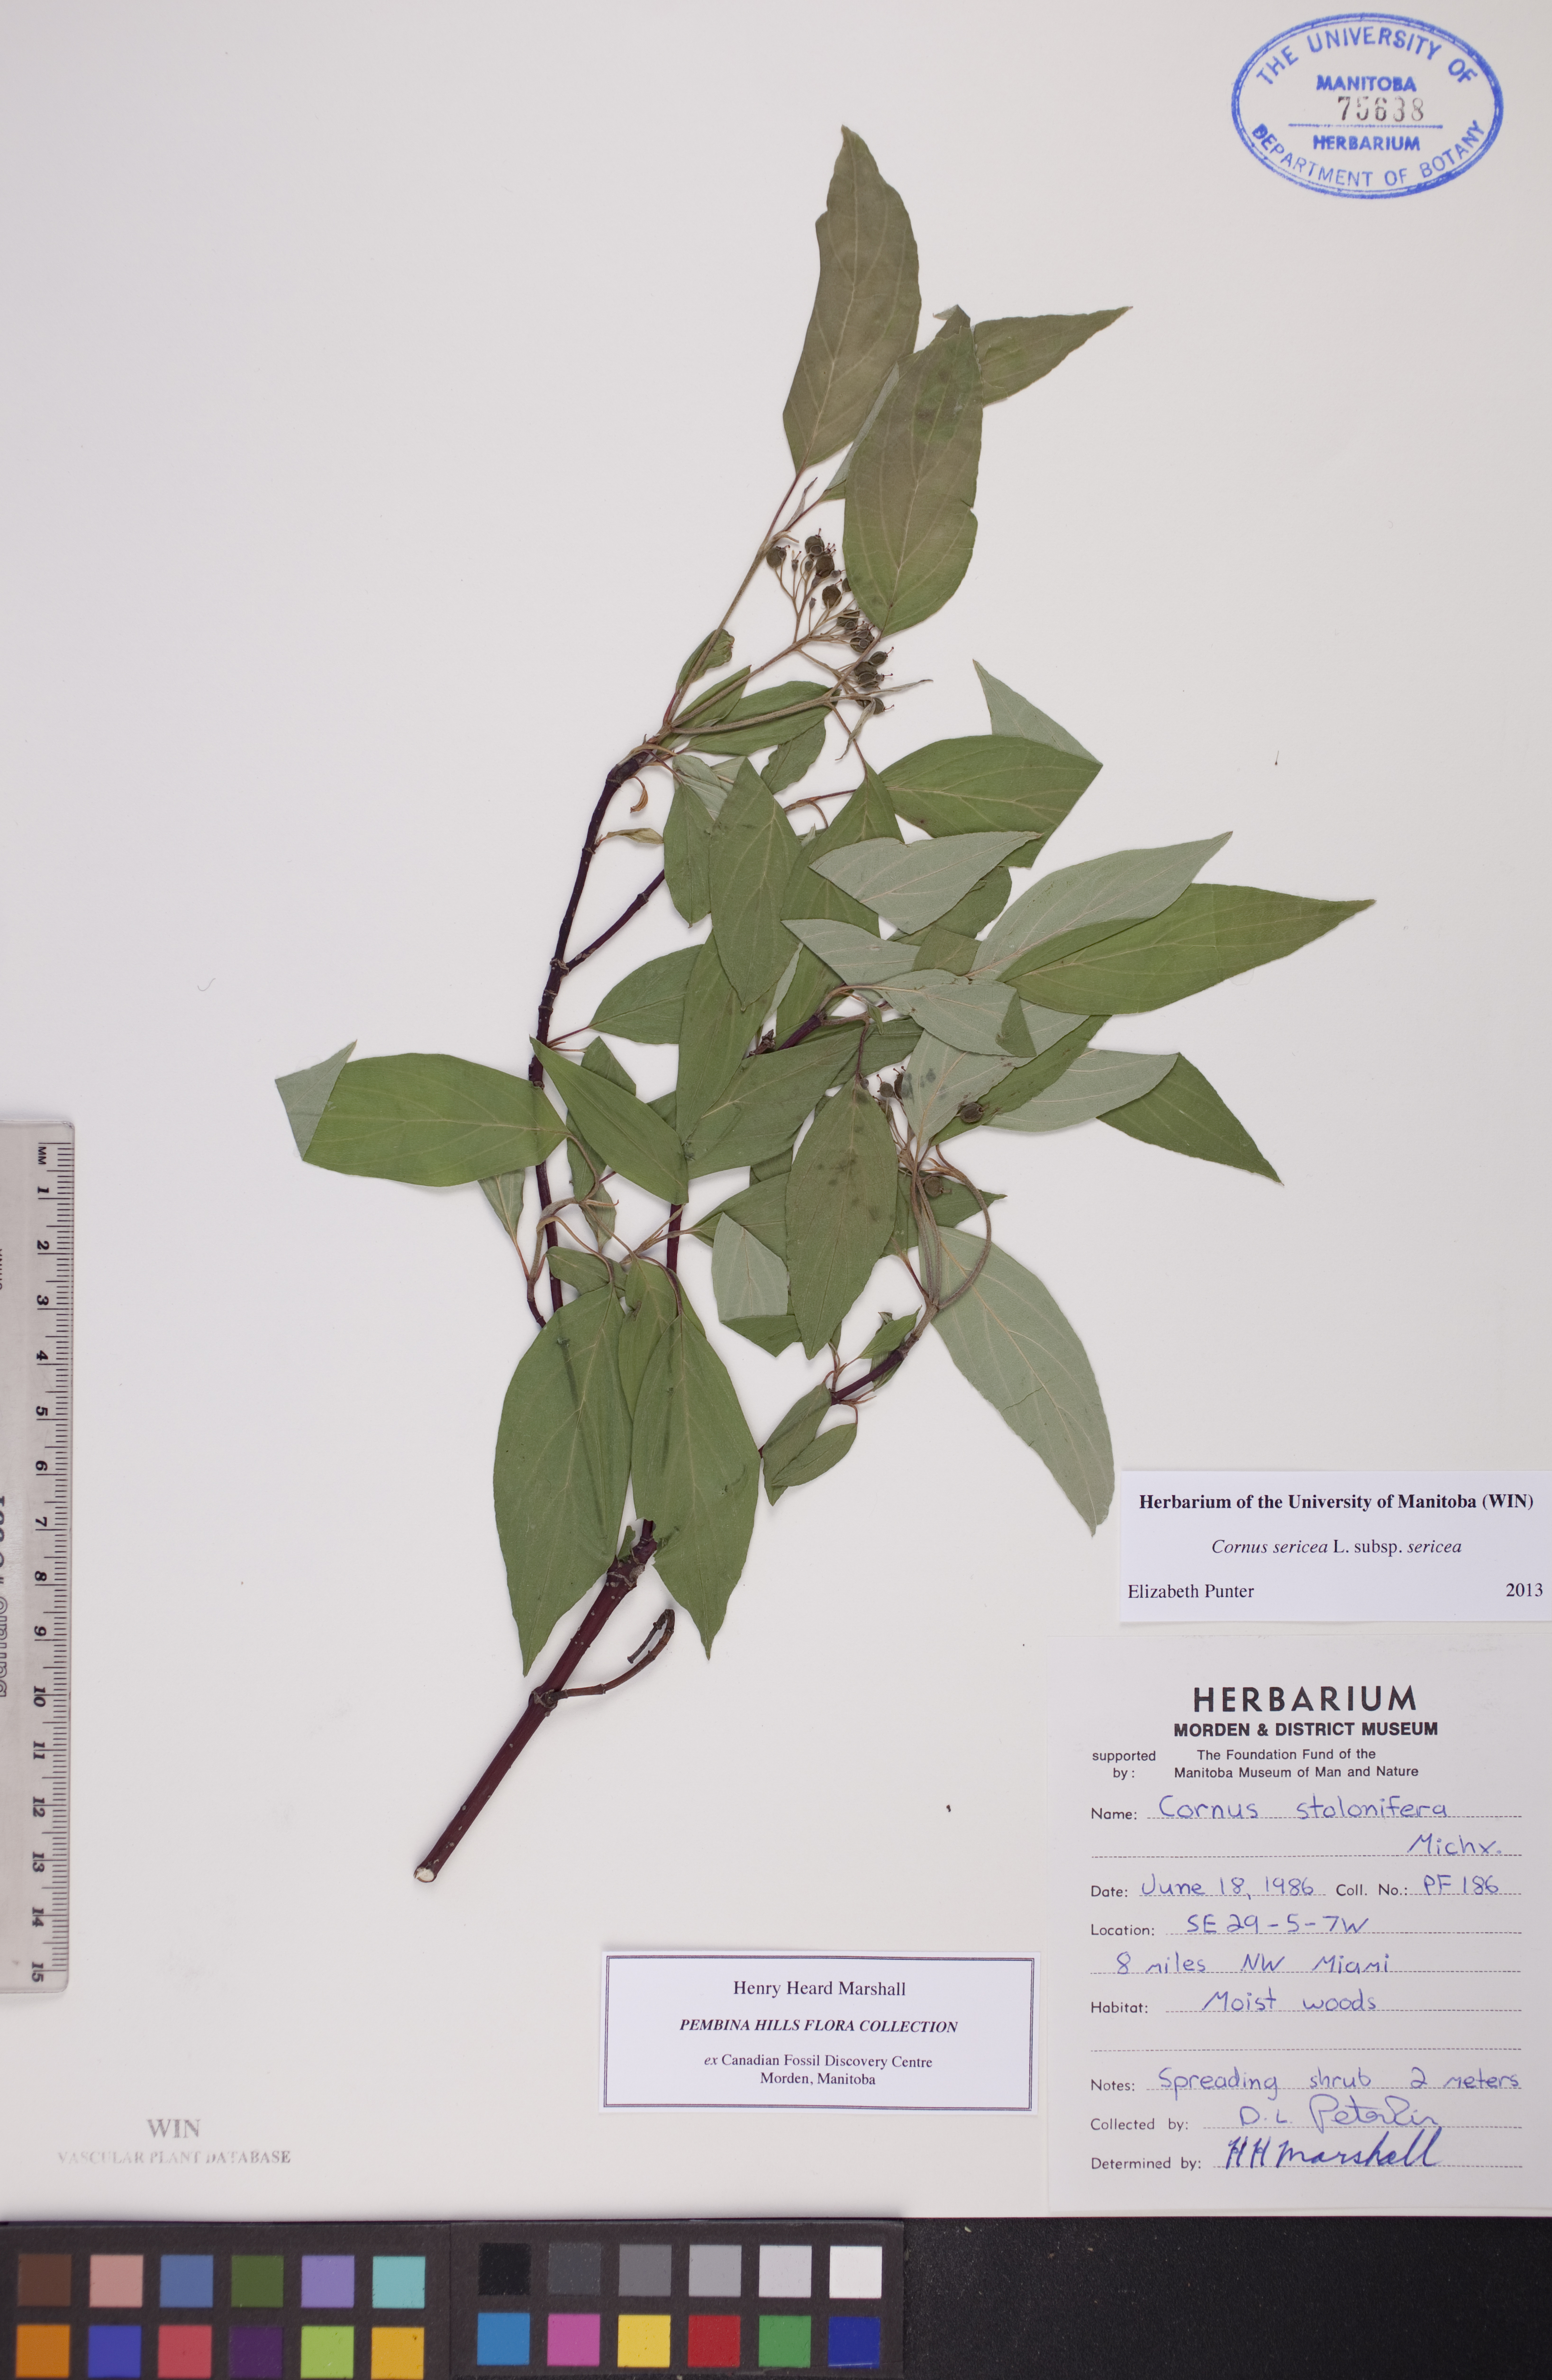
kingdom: Plantae
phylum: Tracheophyta
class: Magnoliopsida
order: Cornales
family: Cornaceae
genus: Cornus
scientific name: Cornus sericea
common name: Red-osier dogwood
